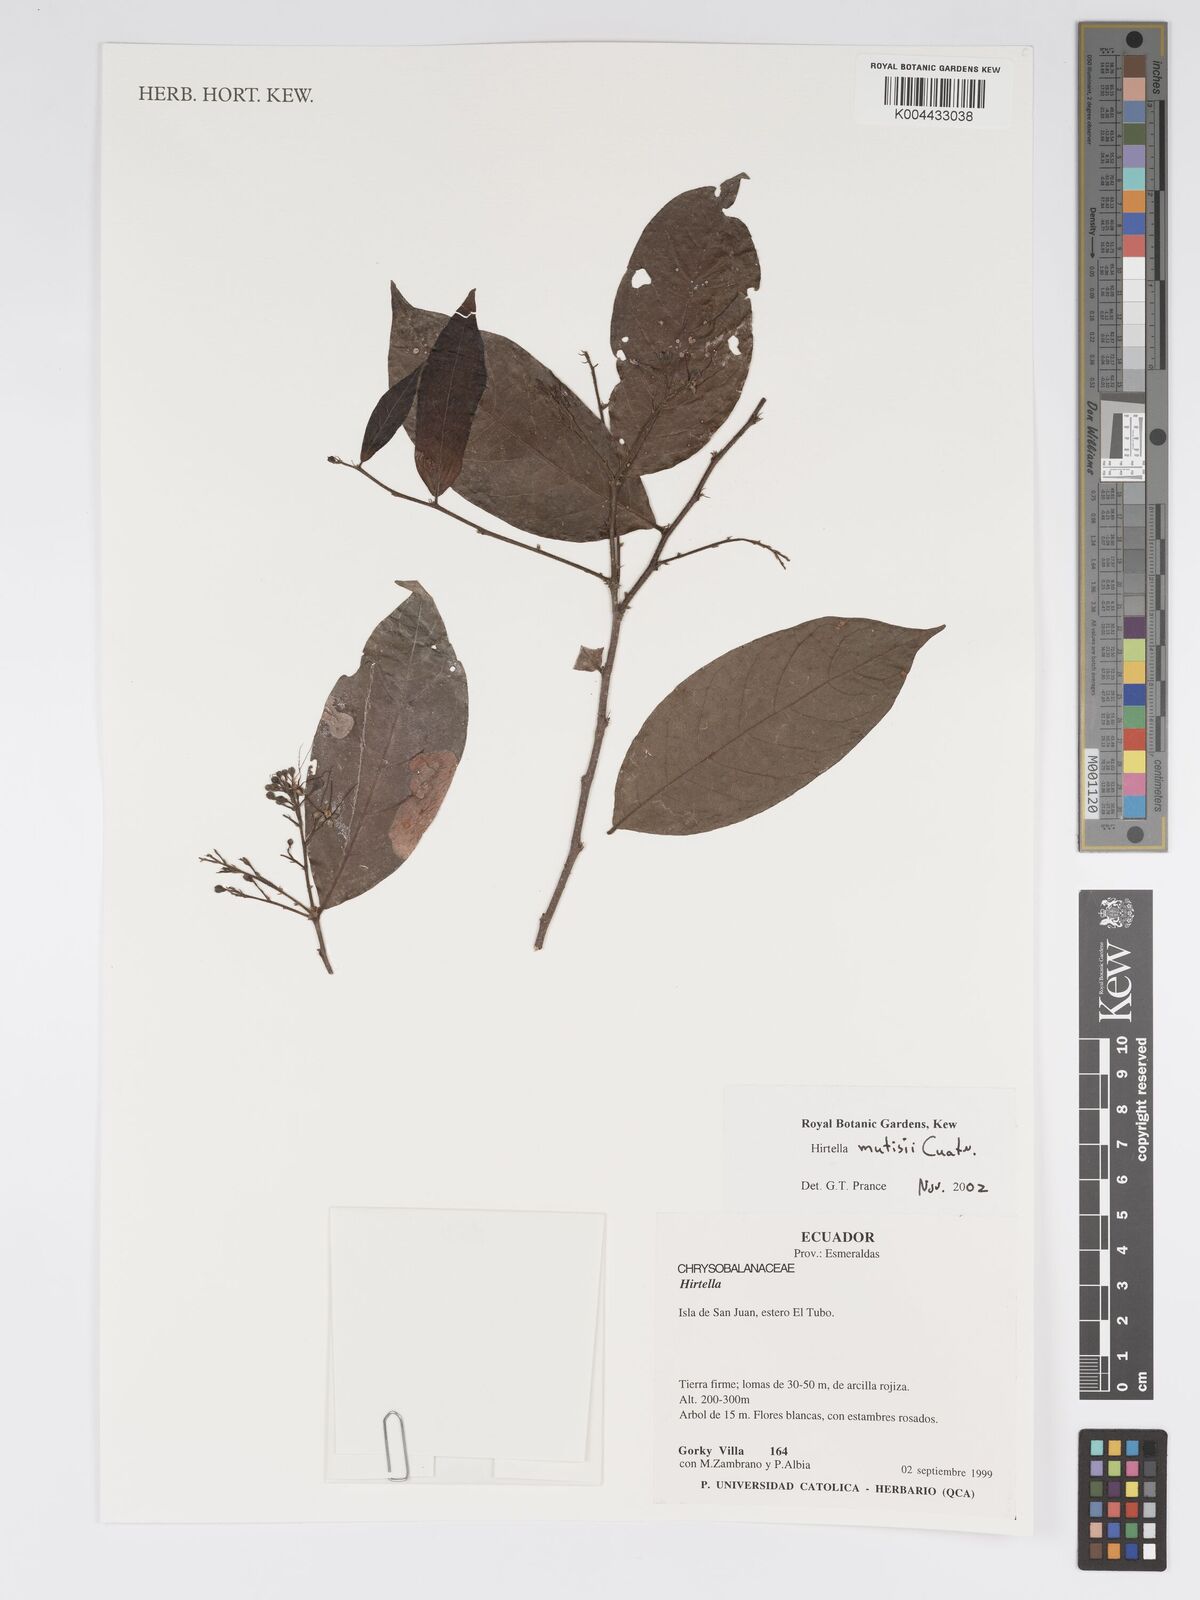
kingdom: Plantae
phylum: Tracheophyta
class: Magnoliopsida
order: Malpighiales
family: Chrysobalanaceae
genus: Hirtella
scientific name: Hirtella mutisii
